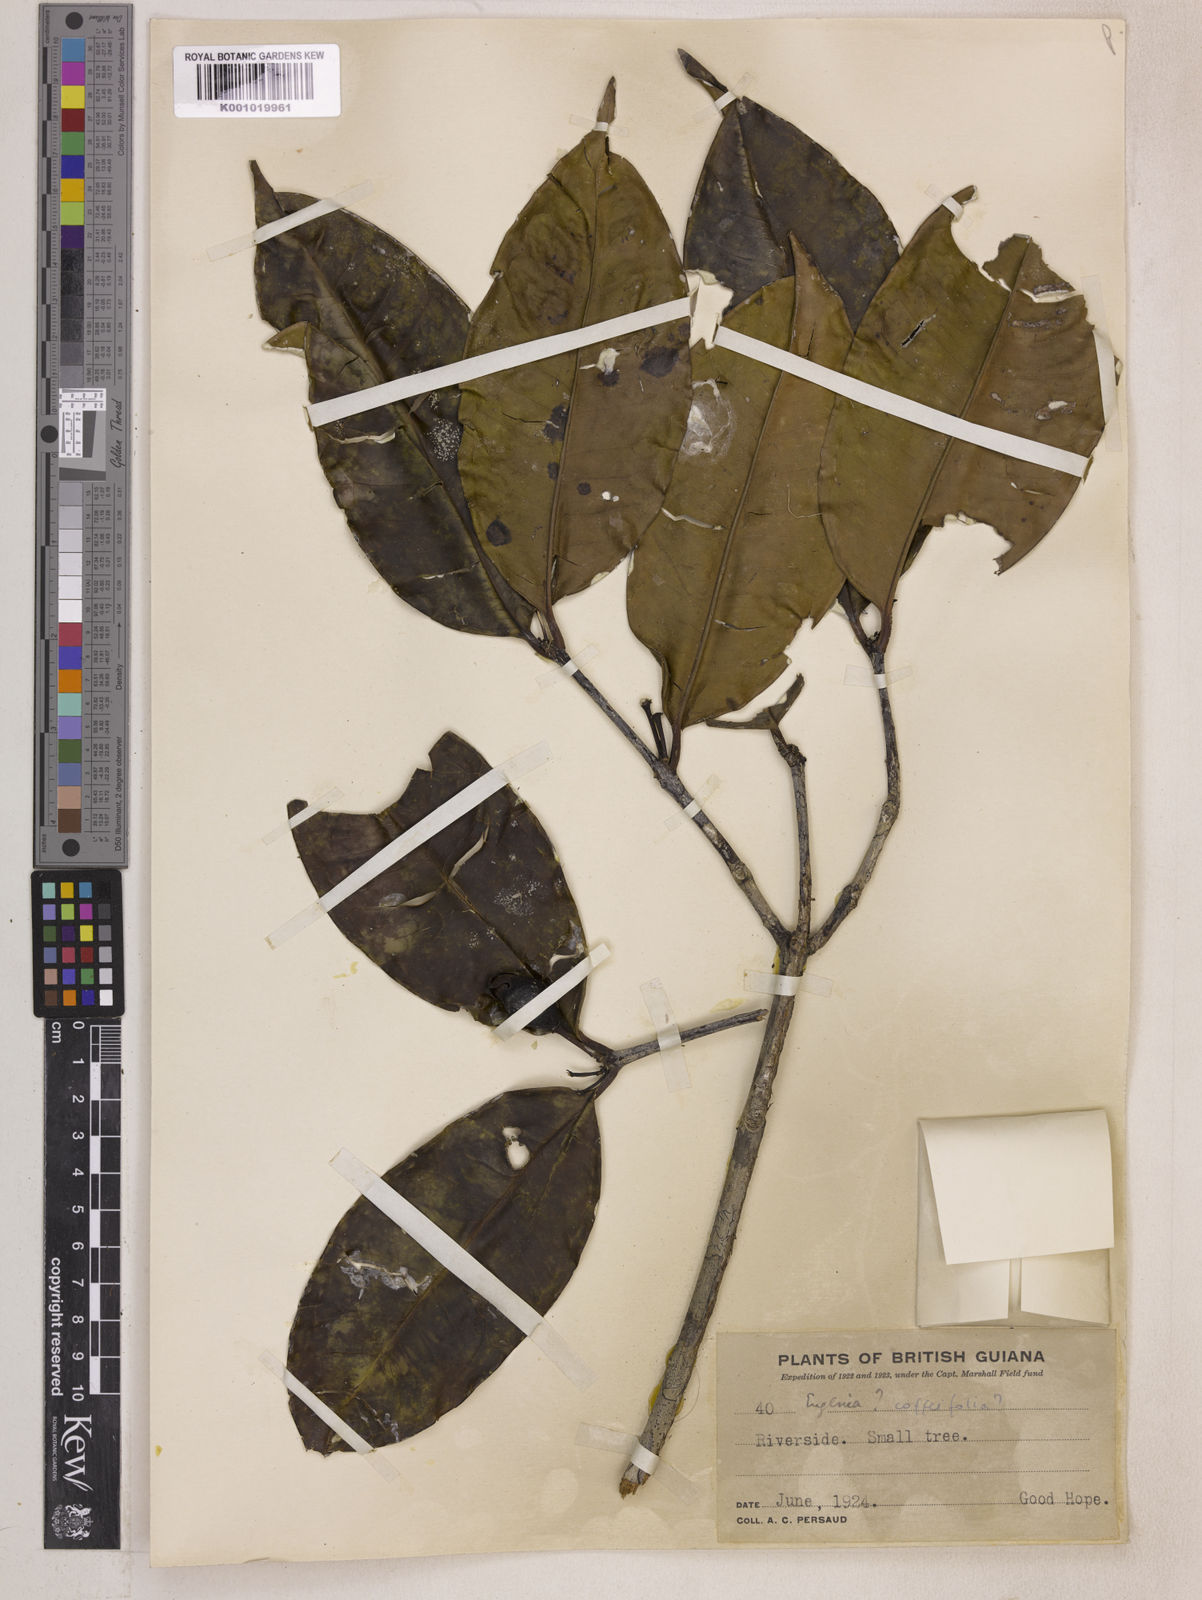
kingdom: Plantae
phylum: Tracheophyta
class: Magnoliopsida
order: Myrtales
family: Myrtaceae
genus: Eugenia
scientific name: Eugenia cucullata
